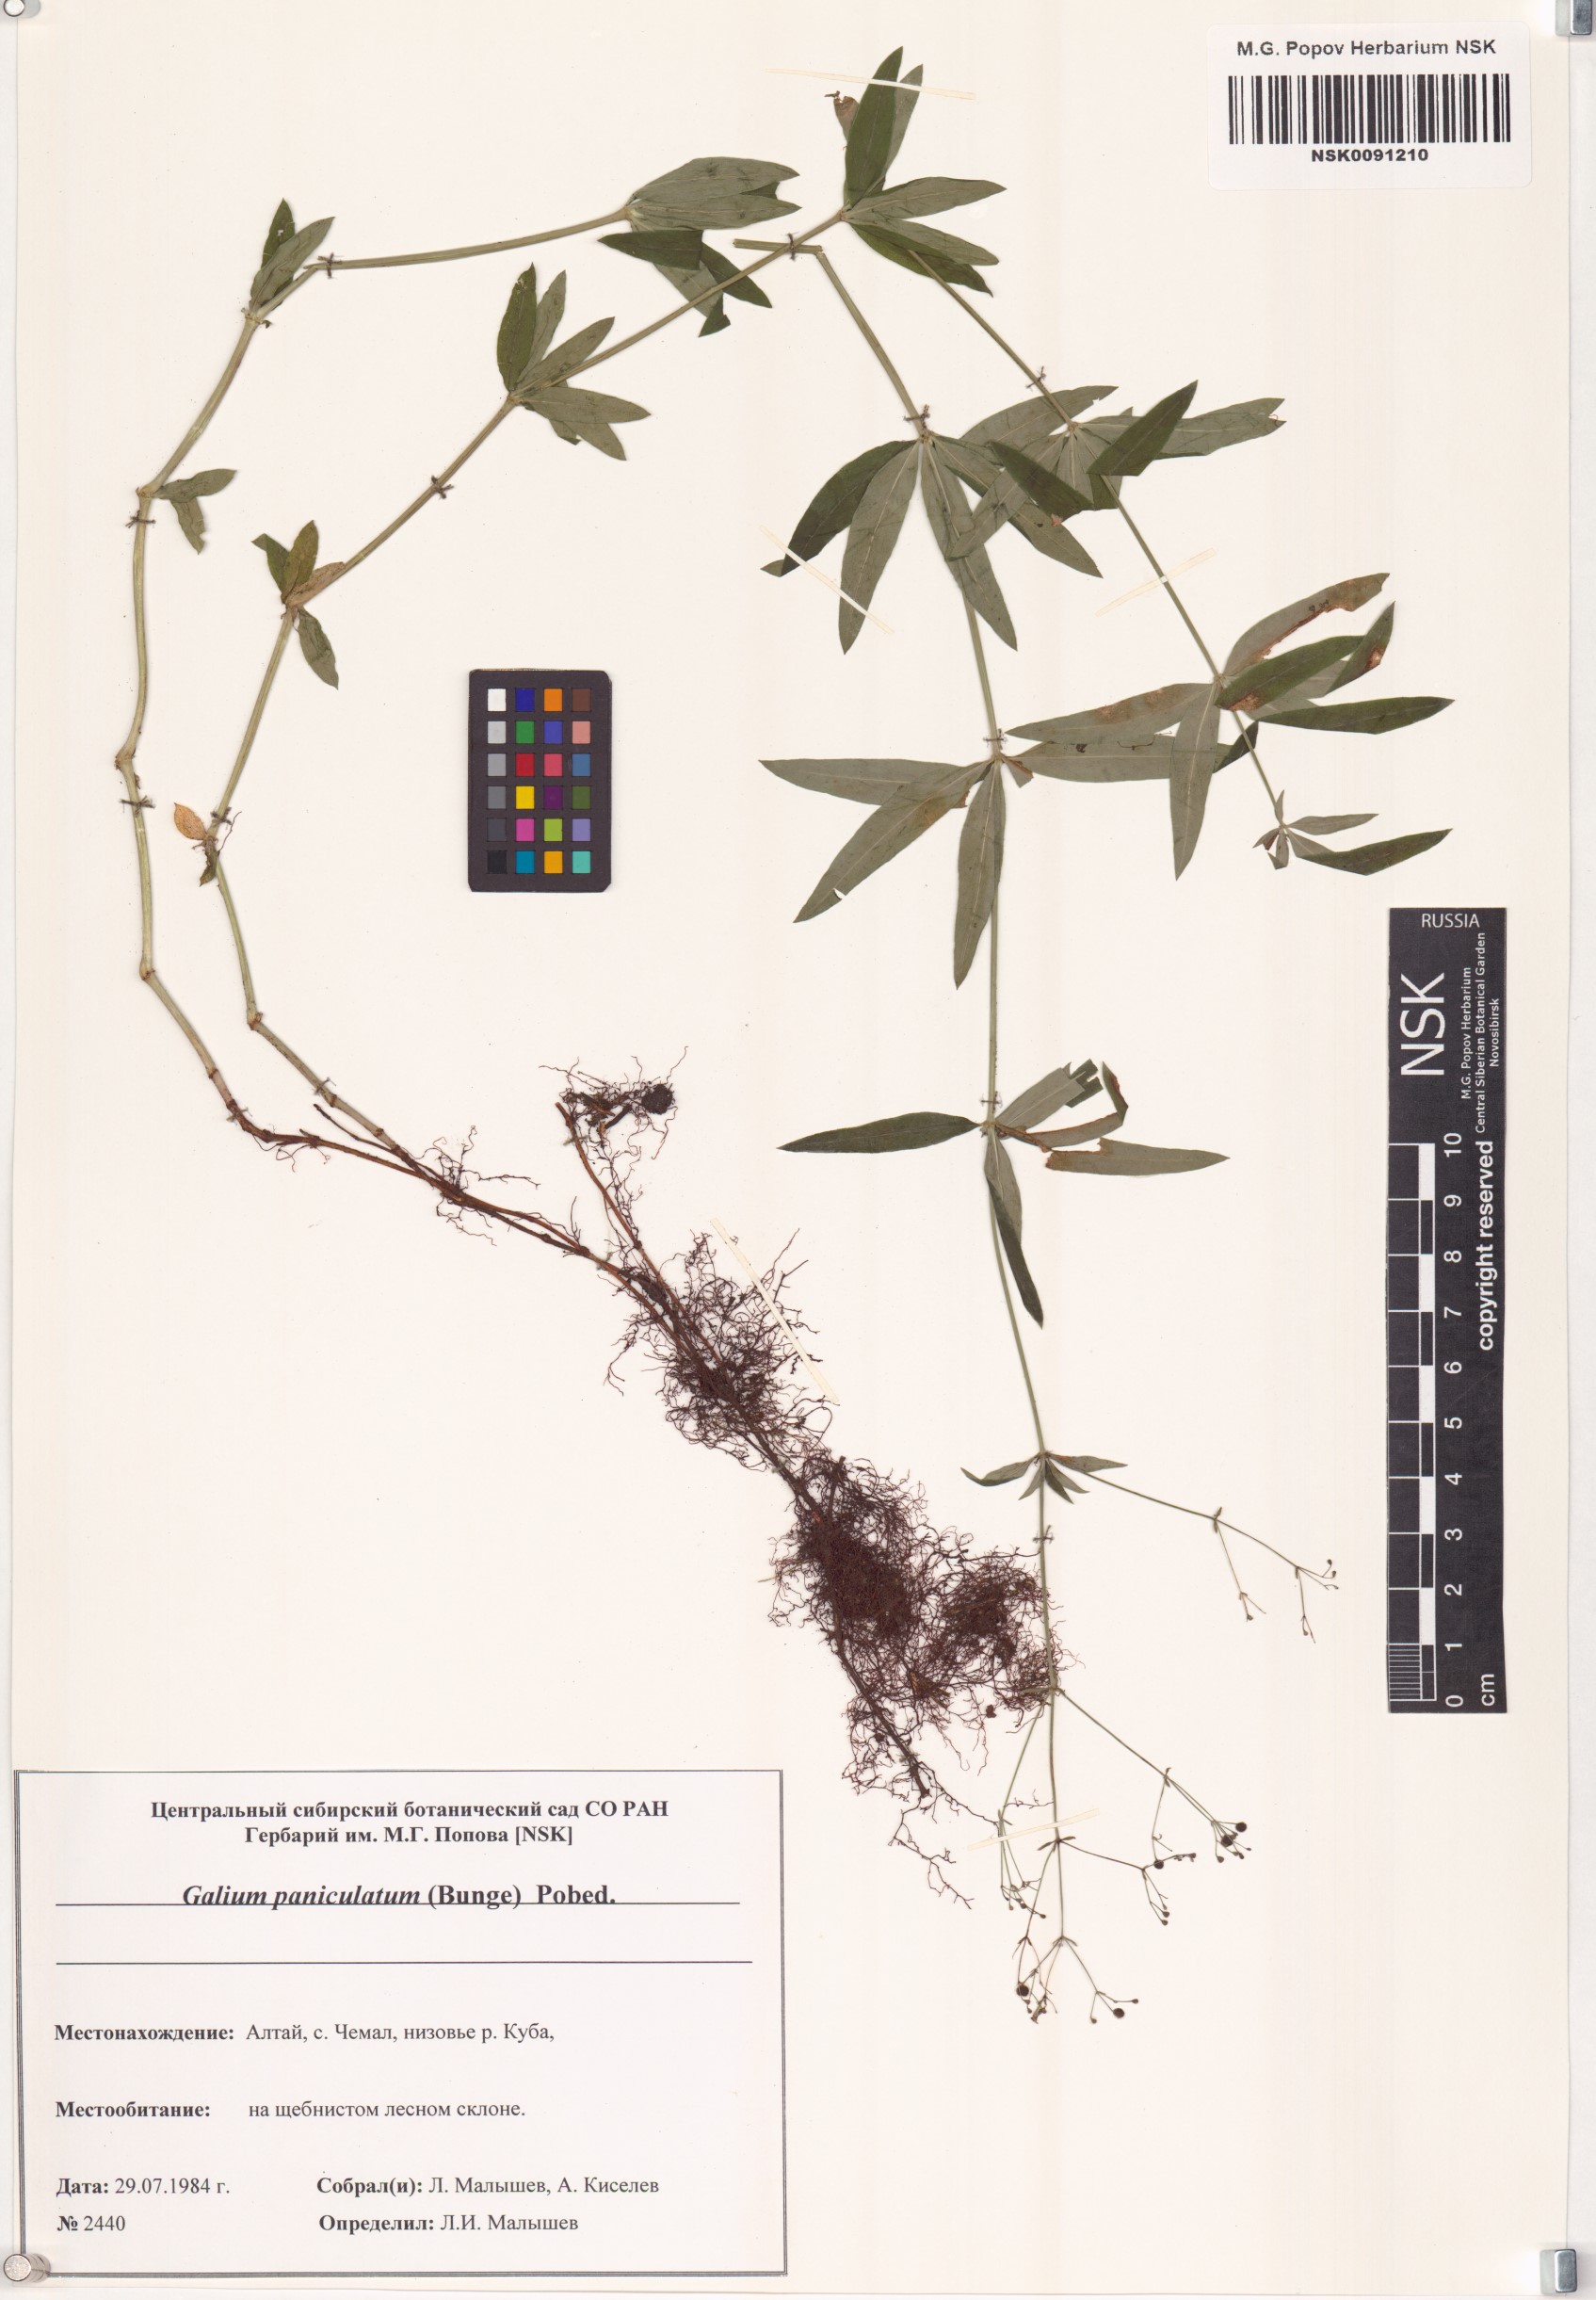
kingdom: Plantae
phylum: Tracheophyta
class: Magnoliopsida
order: Gentianales
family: Rubiaceae
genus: Galium
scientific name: Galium paniculatum
